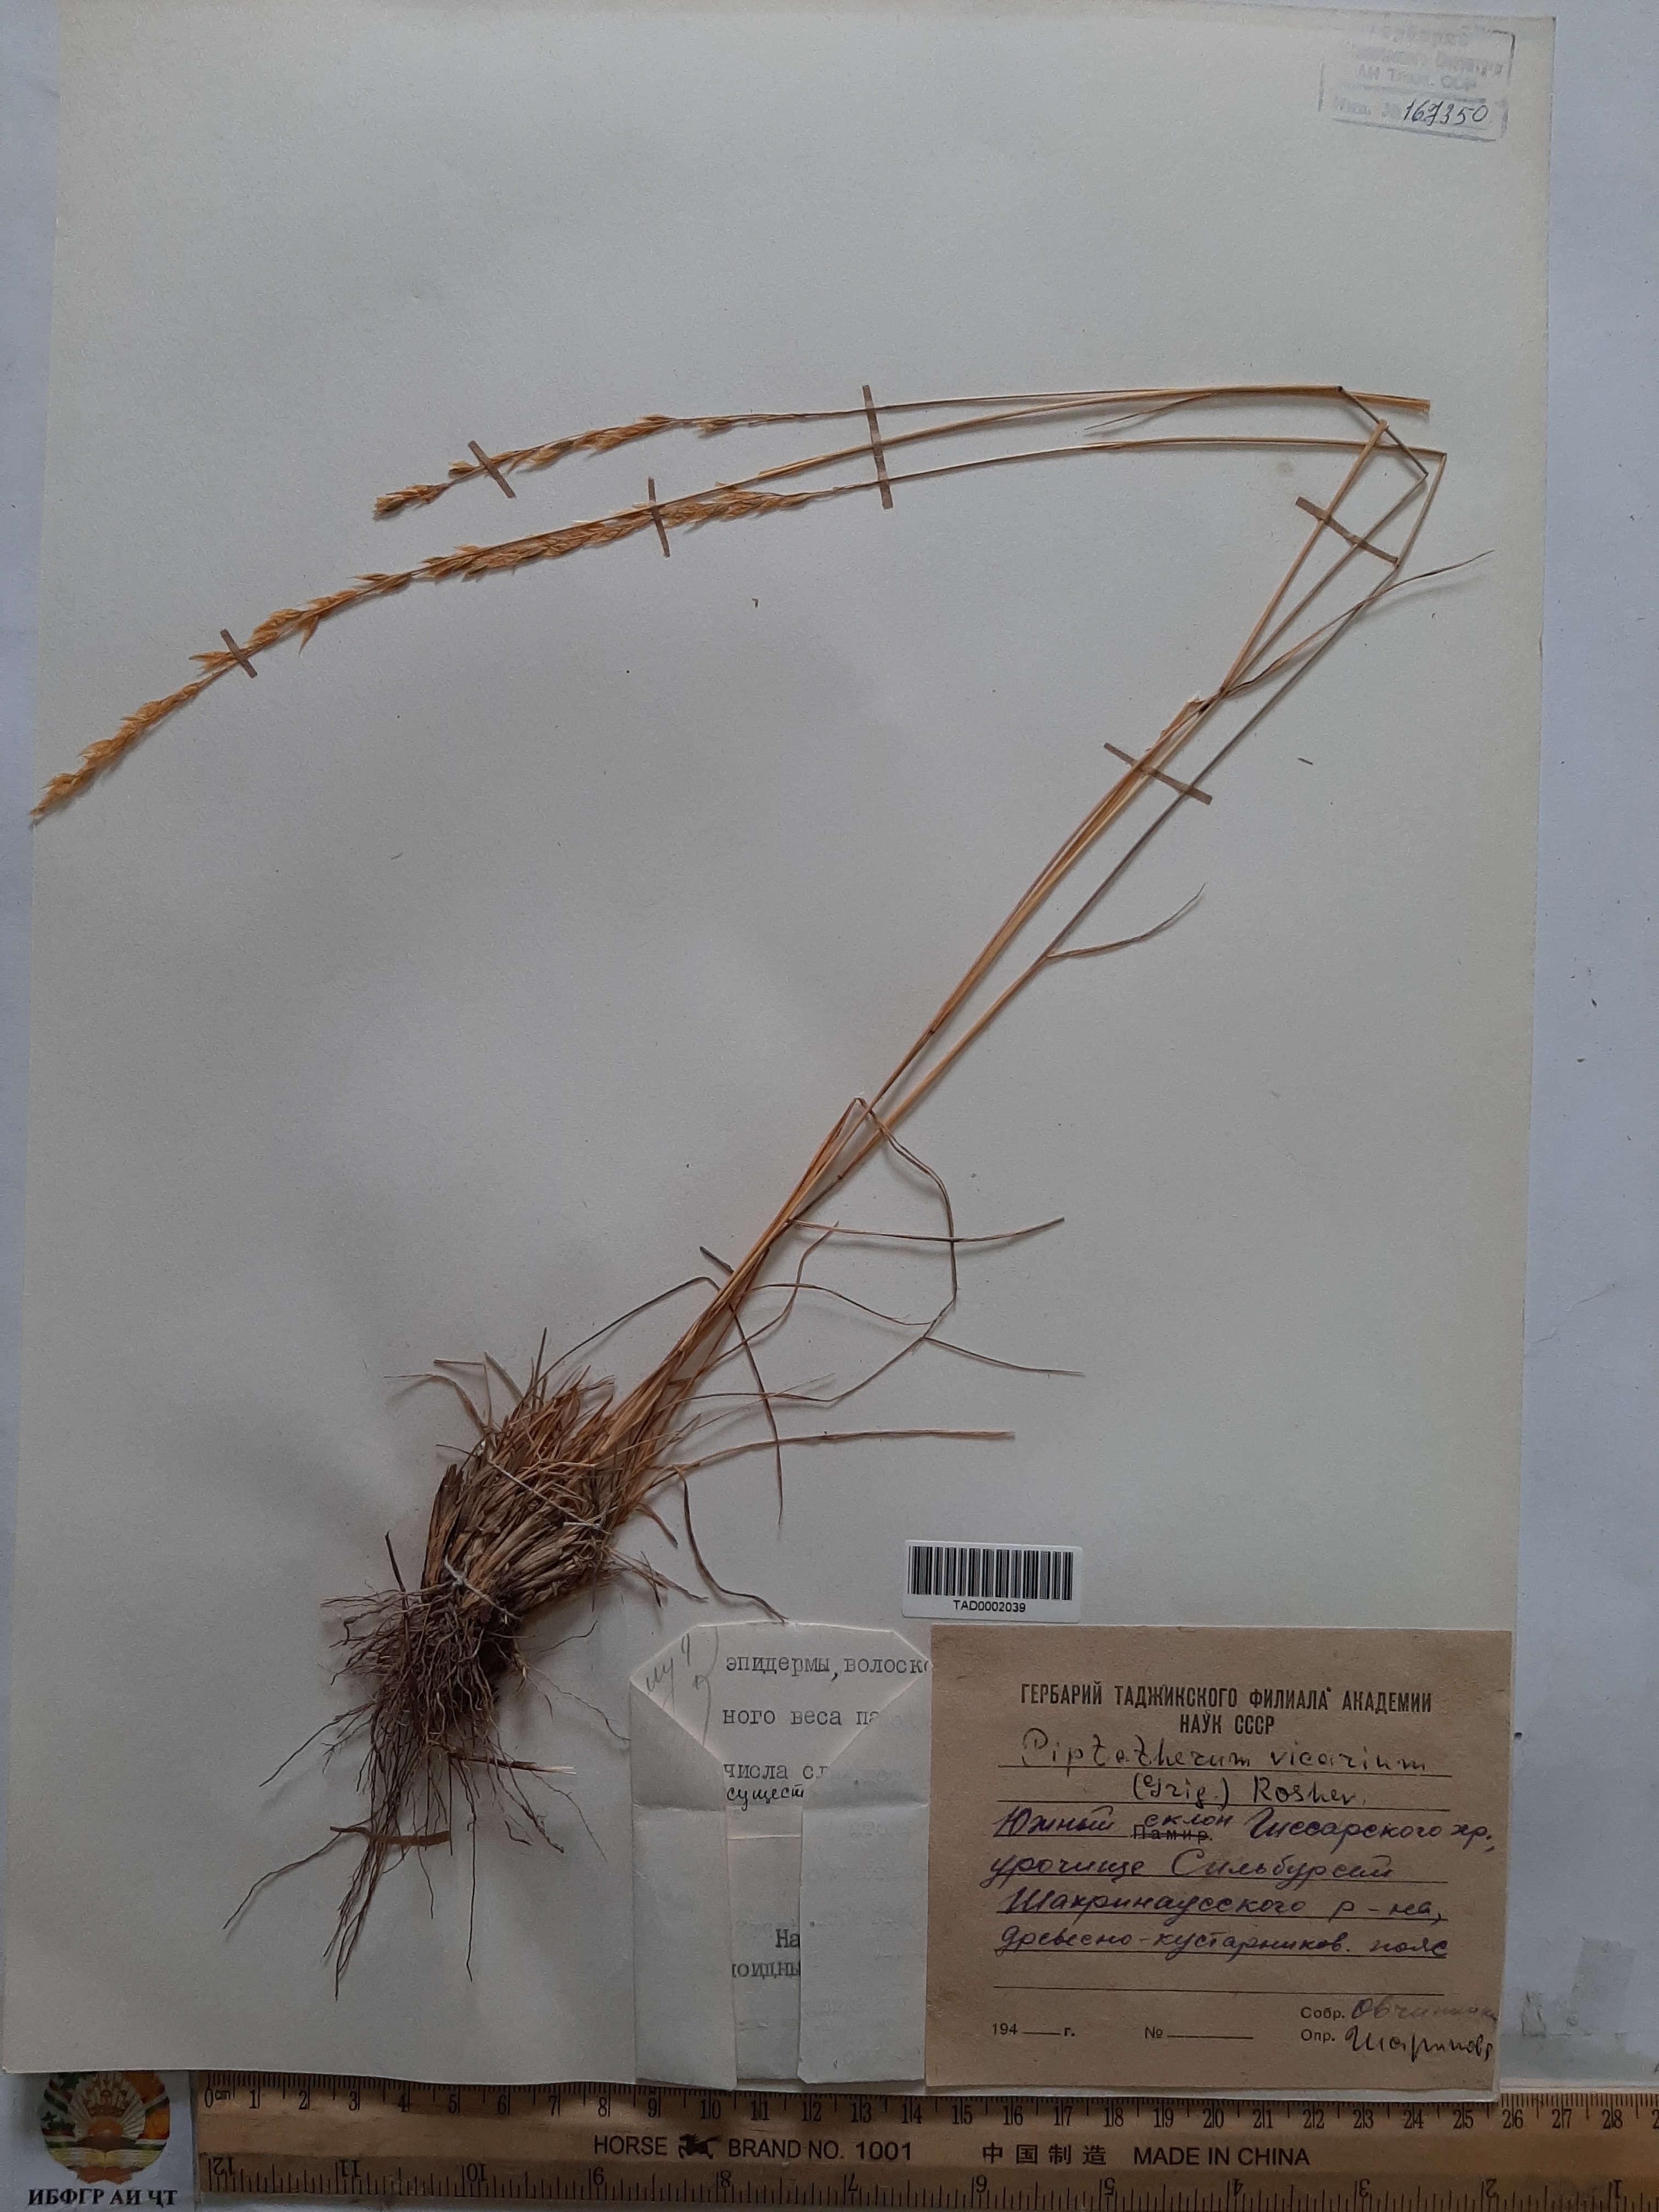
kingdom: Plantae
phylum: Tracheophyta
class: Liliopsida
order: Poales
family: Poaceae
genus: Piptatherum
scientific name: Piptatherum sogdianum
